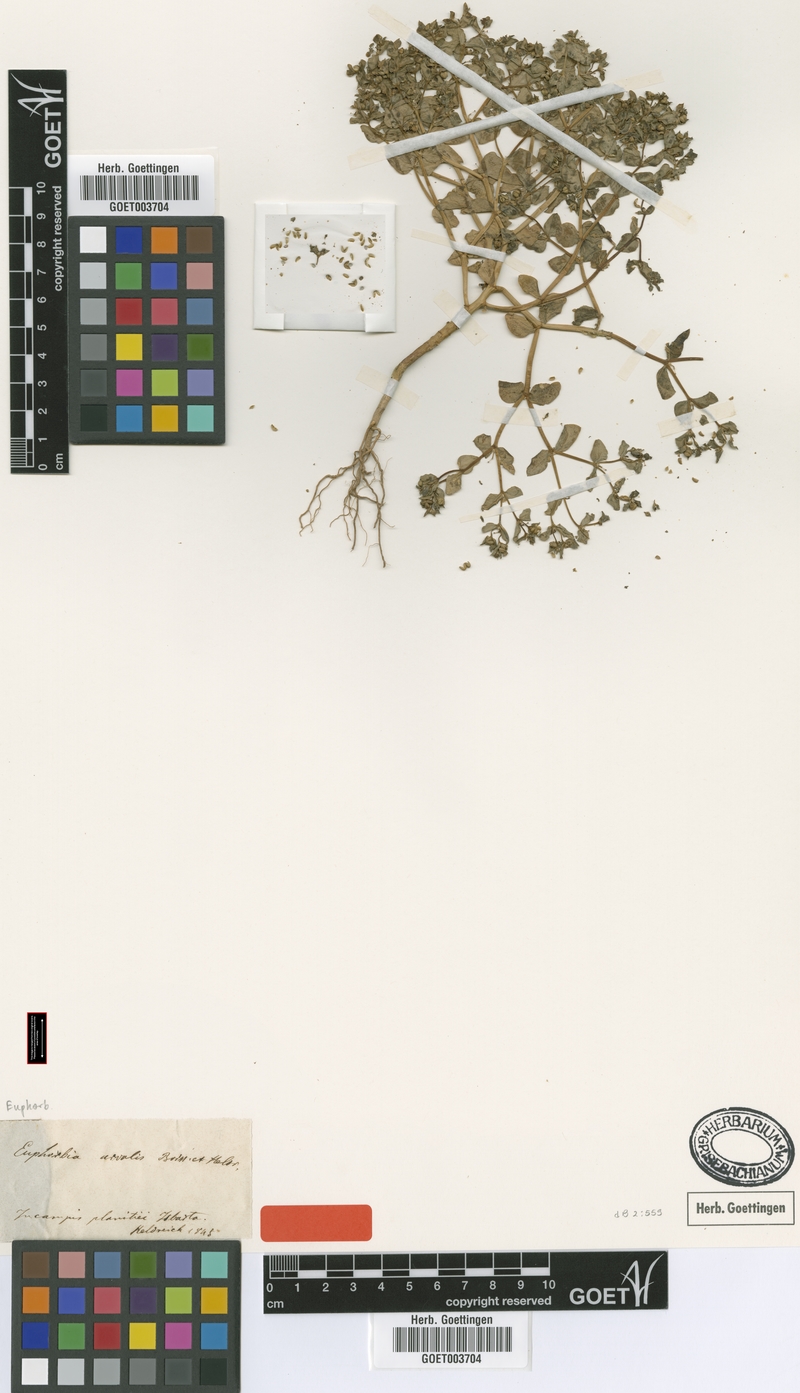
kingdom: Plantae
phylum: Tracheophyta
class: Magnoliopsida
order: Malpighiales
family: Euphorbiaceae
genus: Euphorbia
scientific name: Euphorbia arvalis
